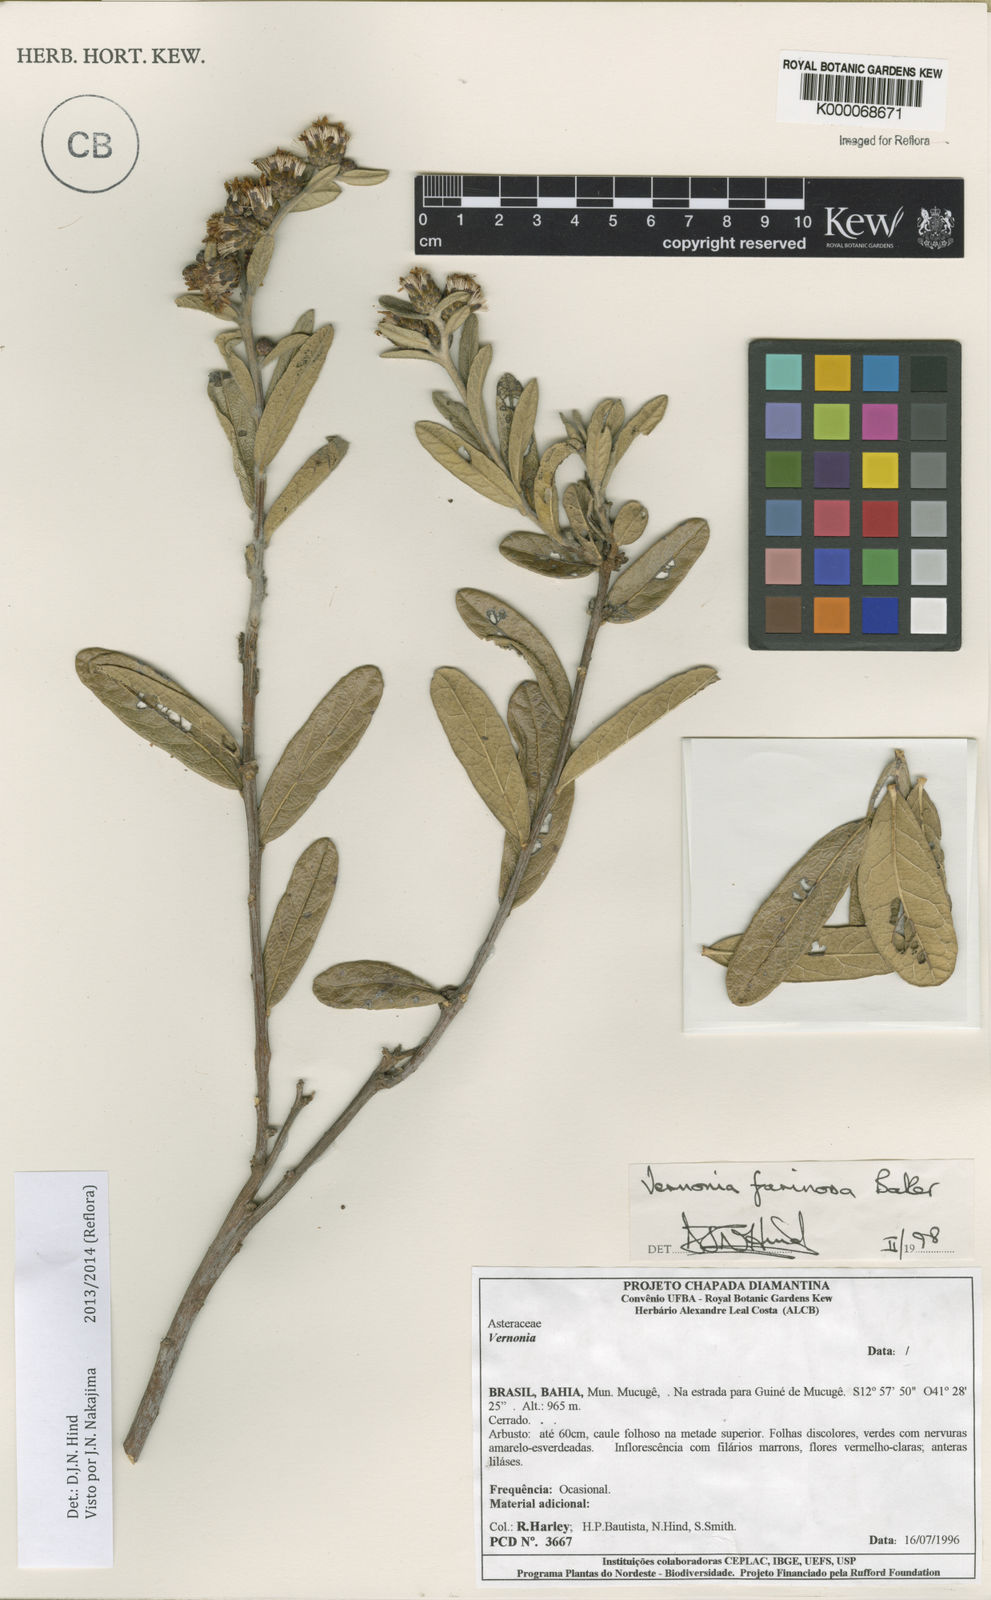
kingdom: Plantae
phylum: Tracheophyta
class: Magnoliopsida
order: Asterales
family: Asteraceae
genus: Lessingianthus
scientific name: Lessingianthus farinosus
